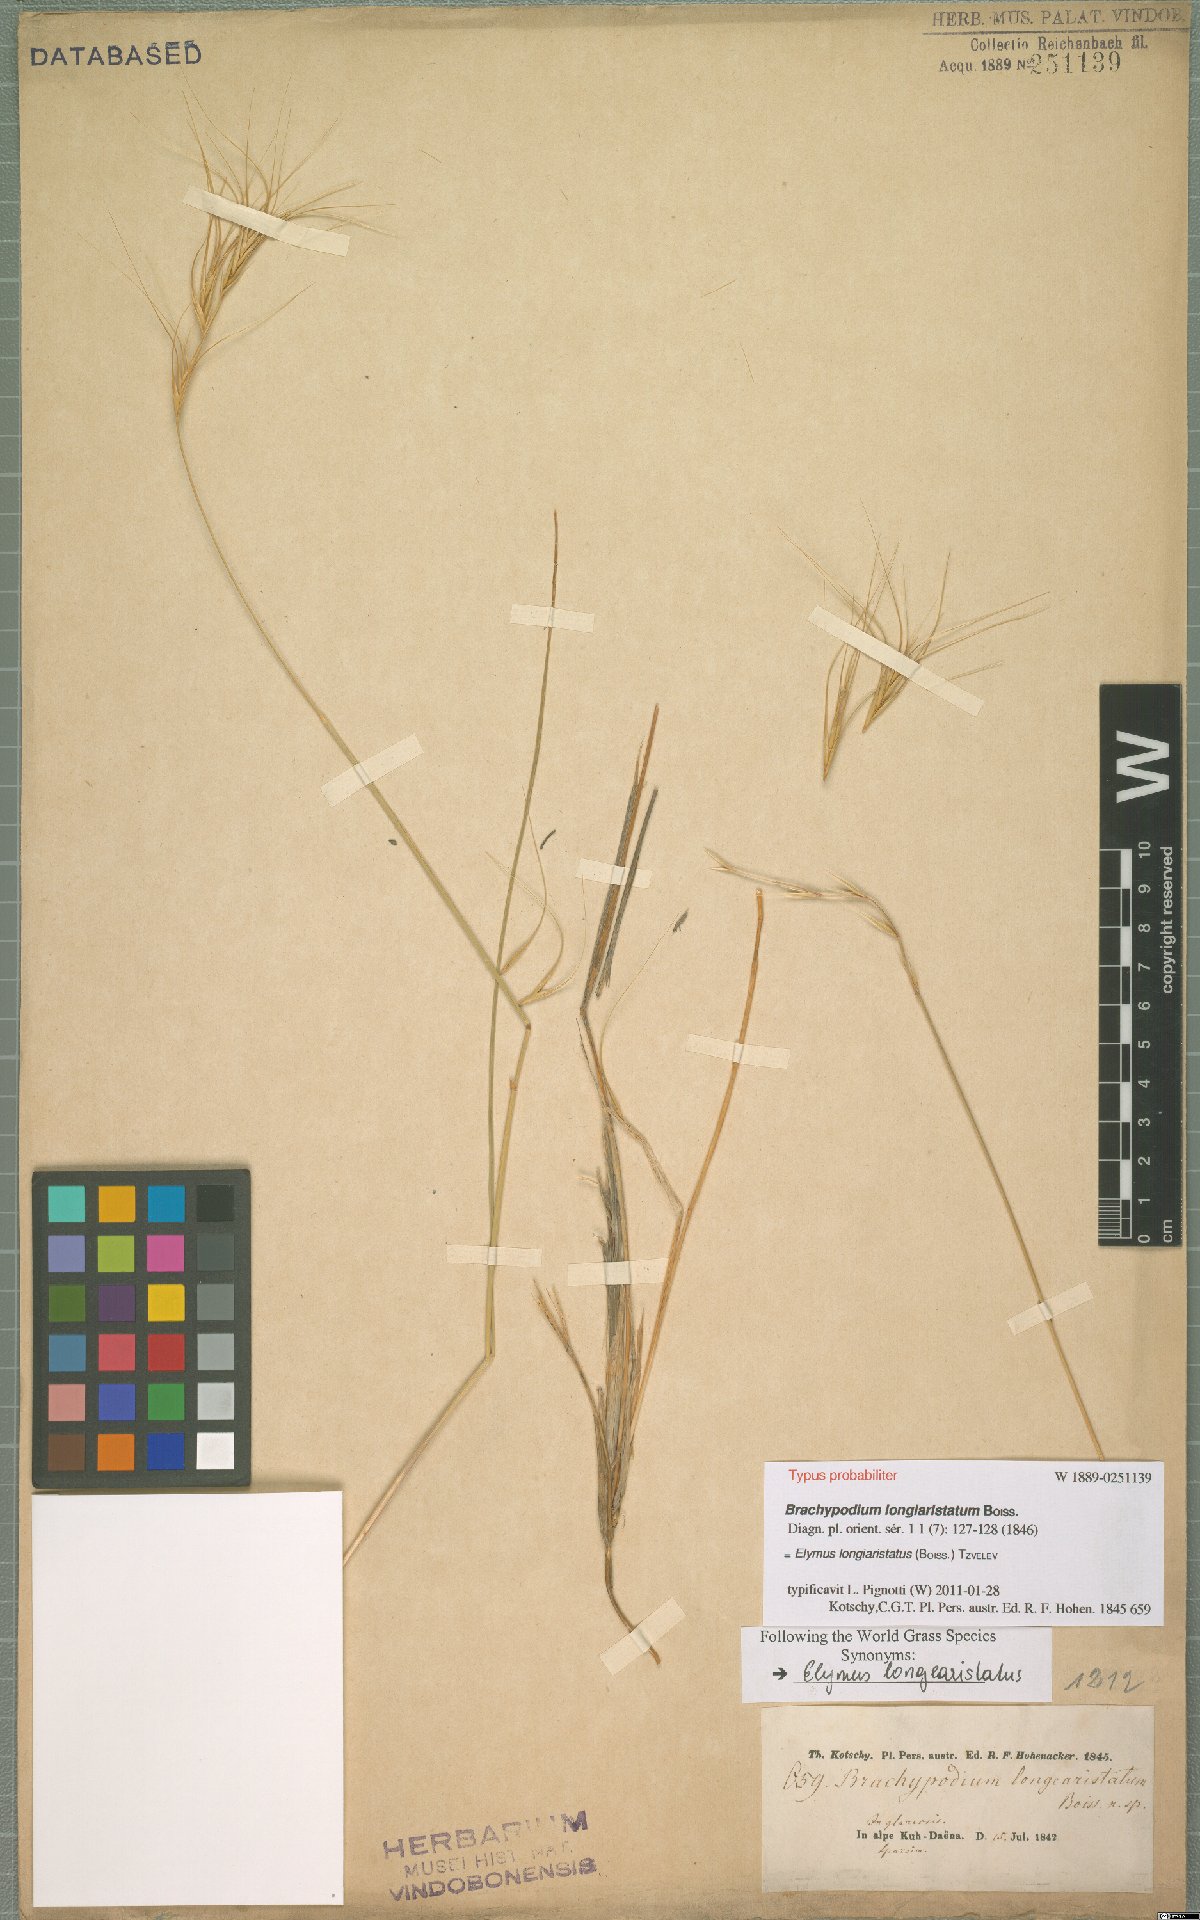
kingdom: Plantae
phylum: Tracheophyta
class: Liliopsida
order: Poales
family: Poaceae
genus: Elymus
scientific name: Elymus longiaristatus
